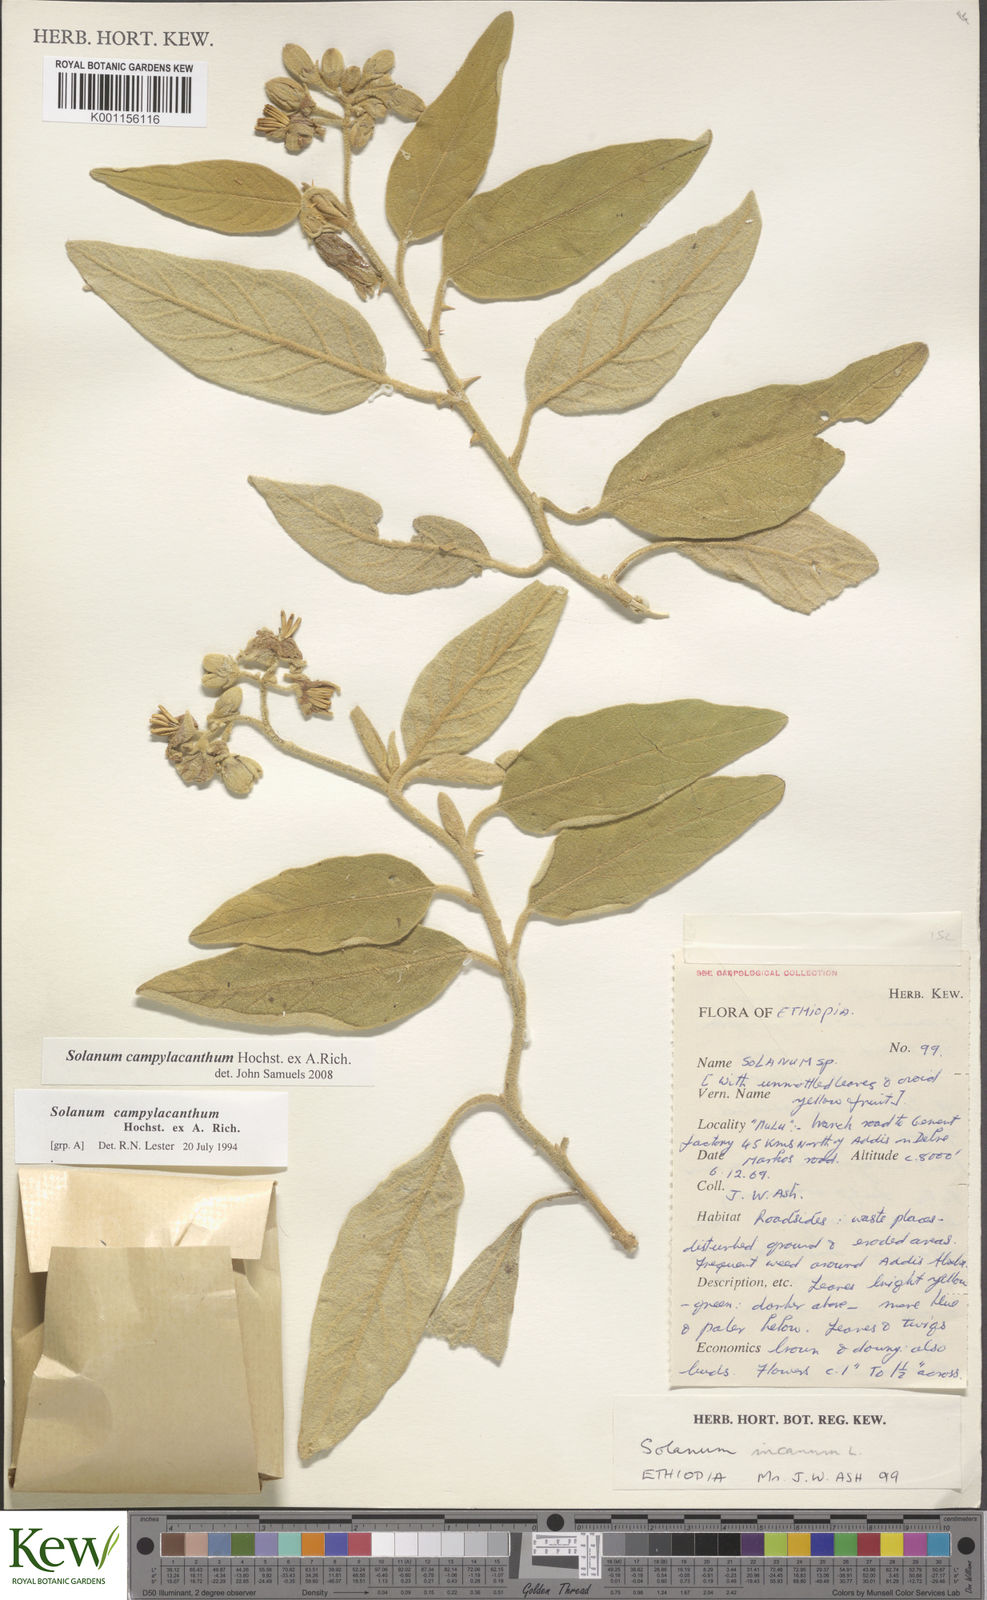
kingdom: Plantae
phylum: Tracheophyta
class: Magnoliopsida
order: Solanales
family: Solanaceae
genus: Solanum
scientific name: Solanum campylacanthum
